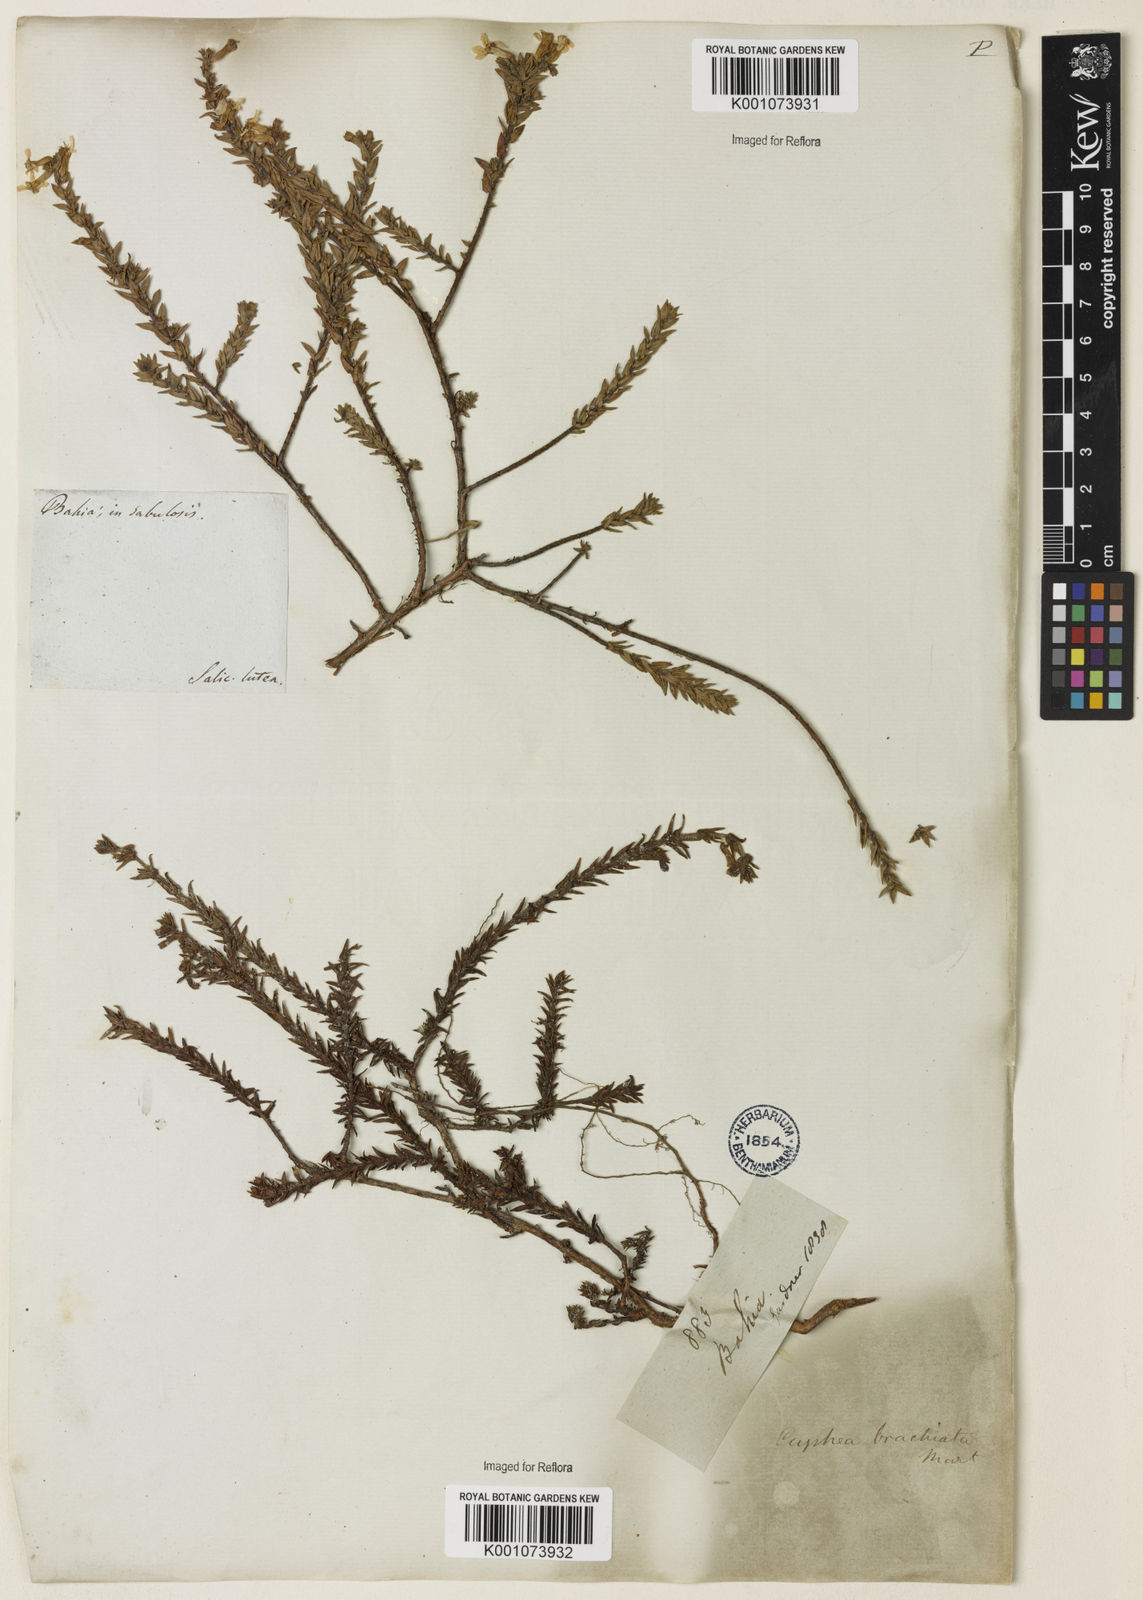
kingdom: Plantae
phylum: Tracheophyta
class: Magnoliopsida
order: Myrtales
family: Lythraceae
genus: Cuphea
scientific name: Cuphea brachiata
